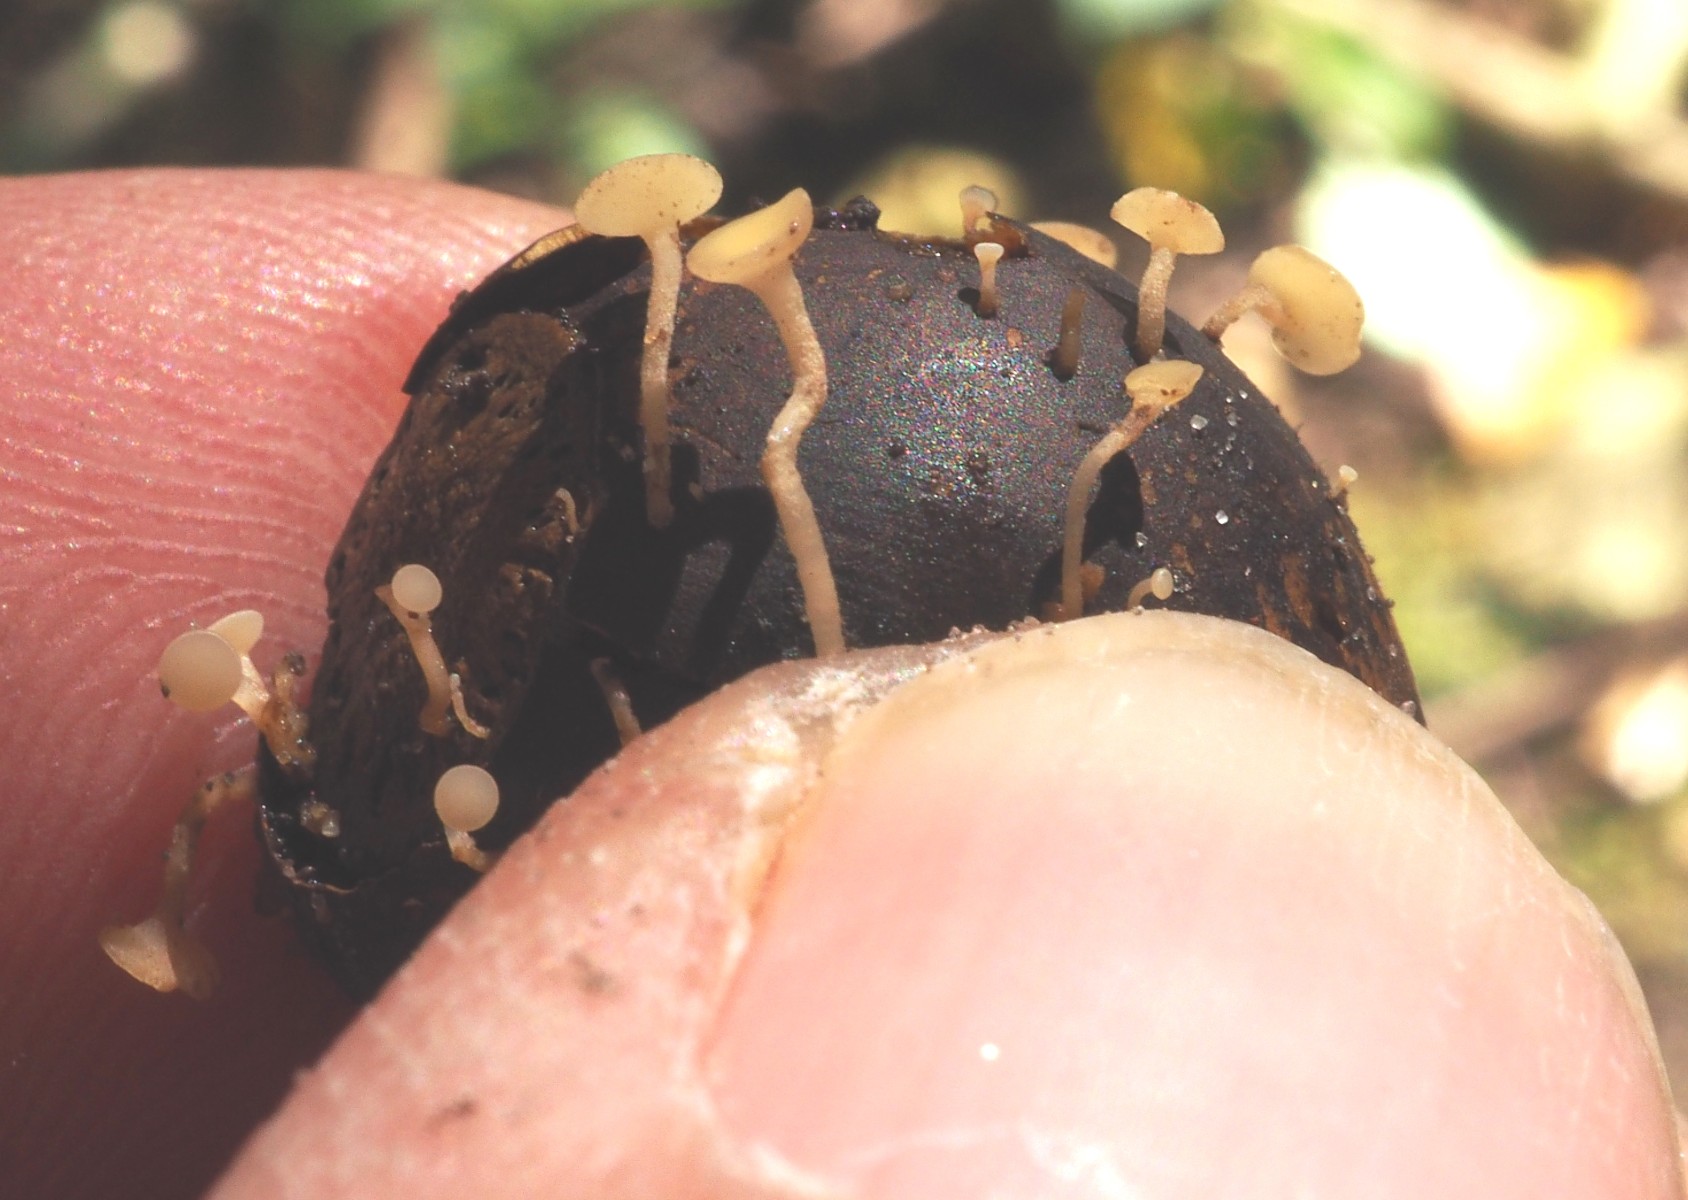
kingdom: Fungi
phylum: Ascomycota
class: Leotiomycetes
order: Helotiales
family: Helotiaceae
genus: Hymenoscyphus
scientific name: Hymenoscyphus fructigenus
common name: frugt-stilkskive
